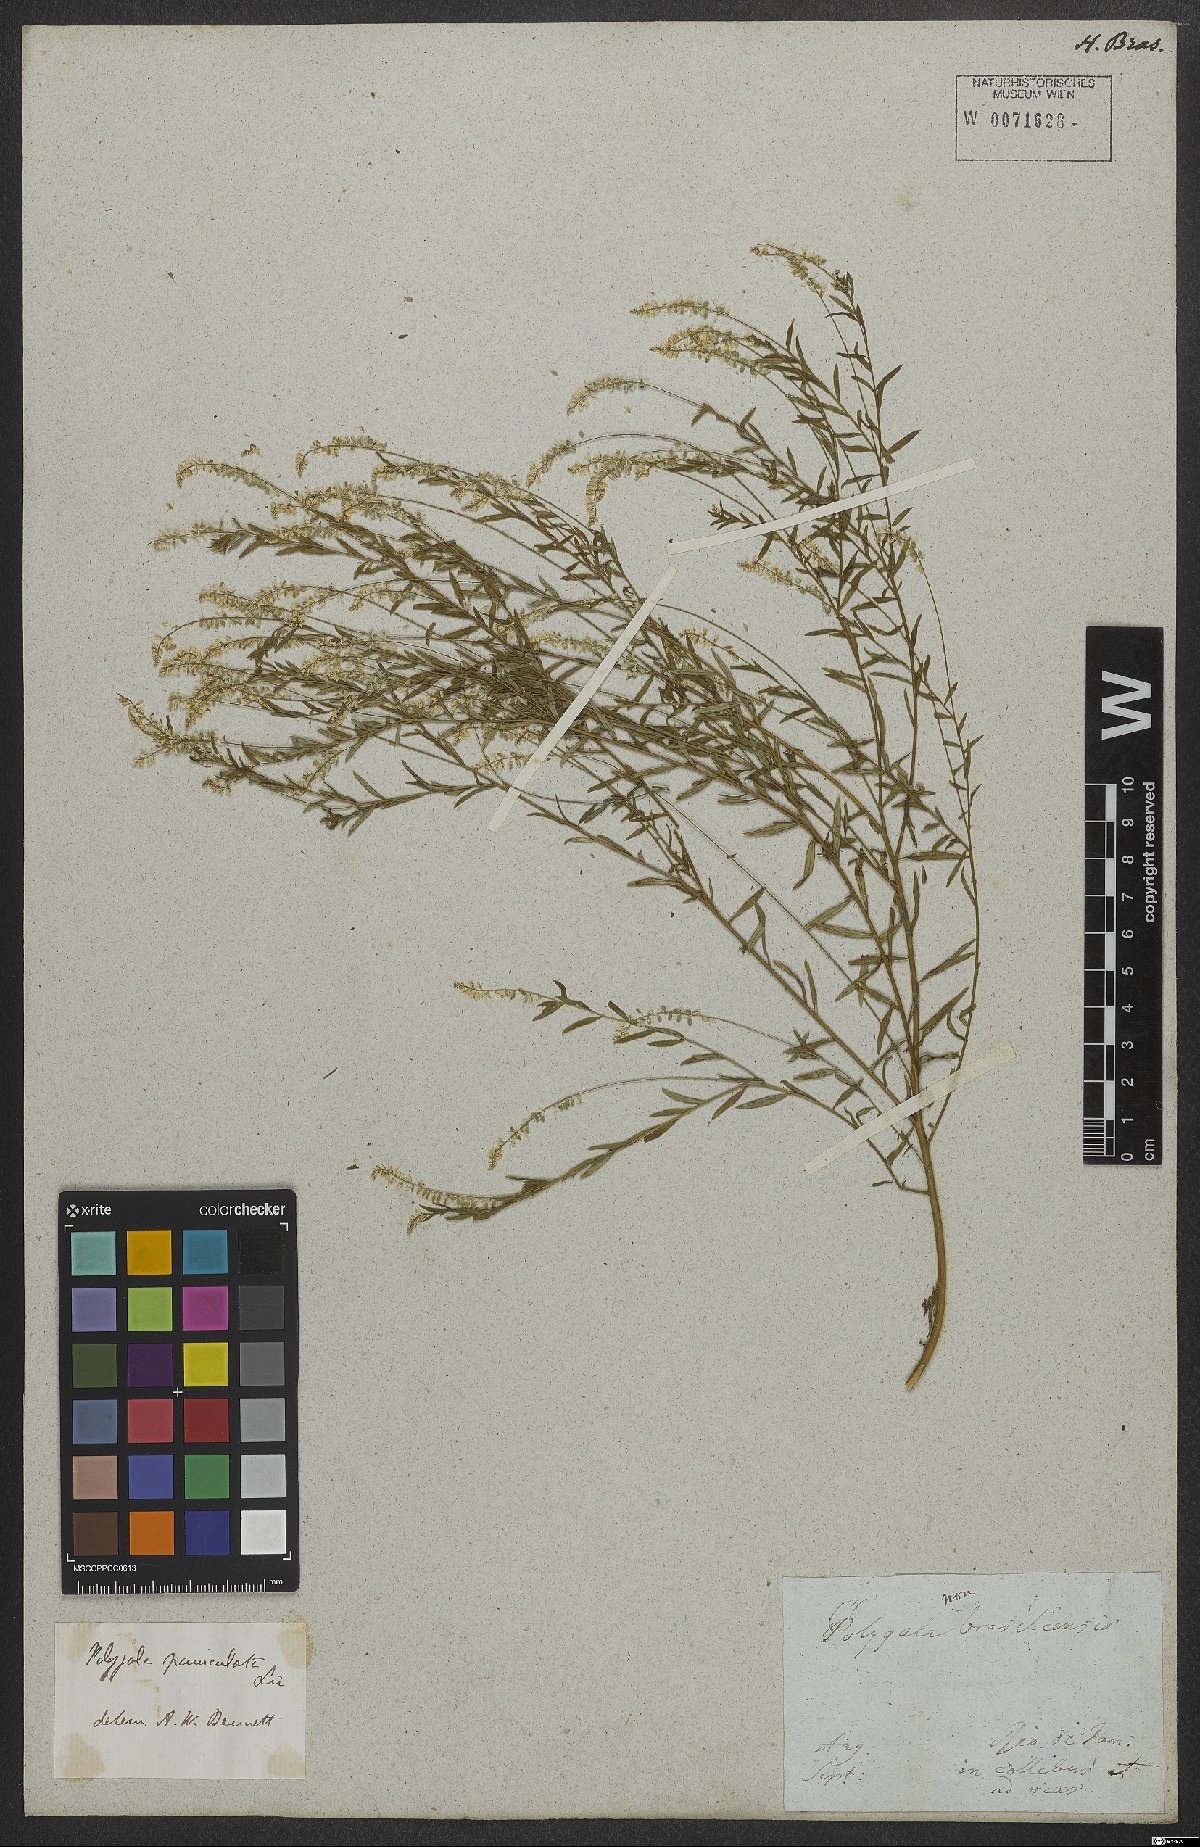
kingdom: Plantae
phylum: Tracheophyta
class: Magnoliopsida
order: Fabales
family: Polygalaceae
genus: Polygala
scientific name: Polygala exilis
